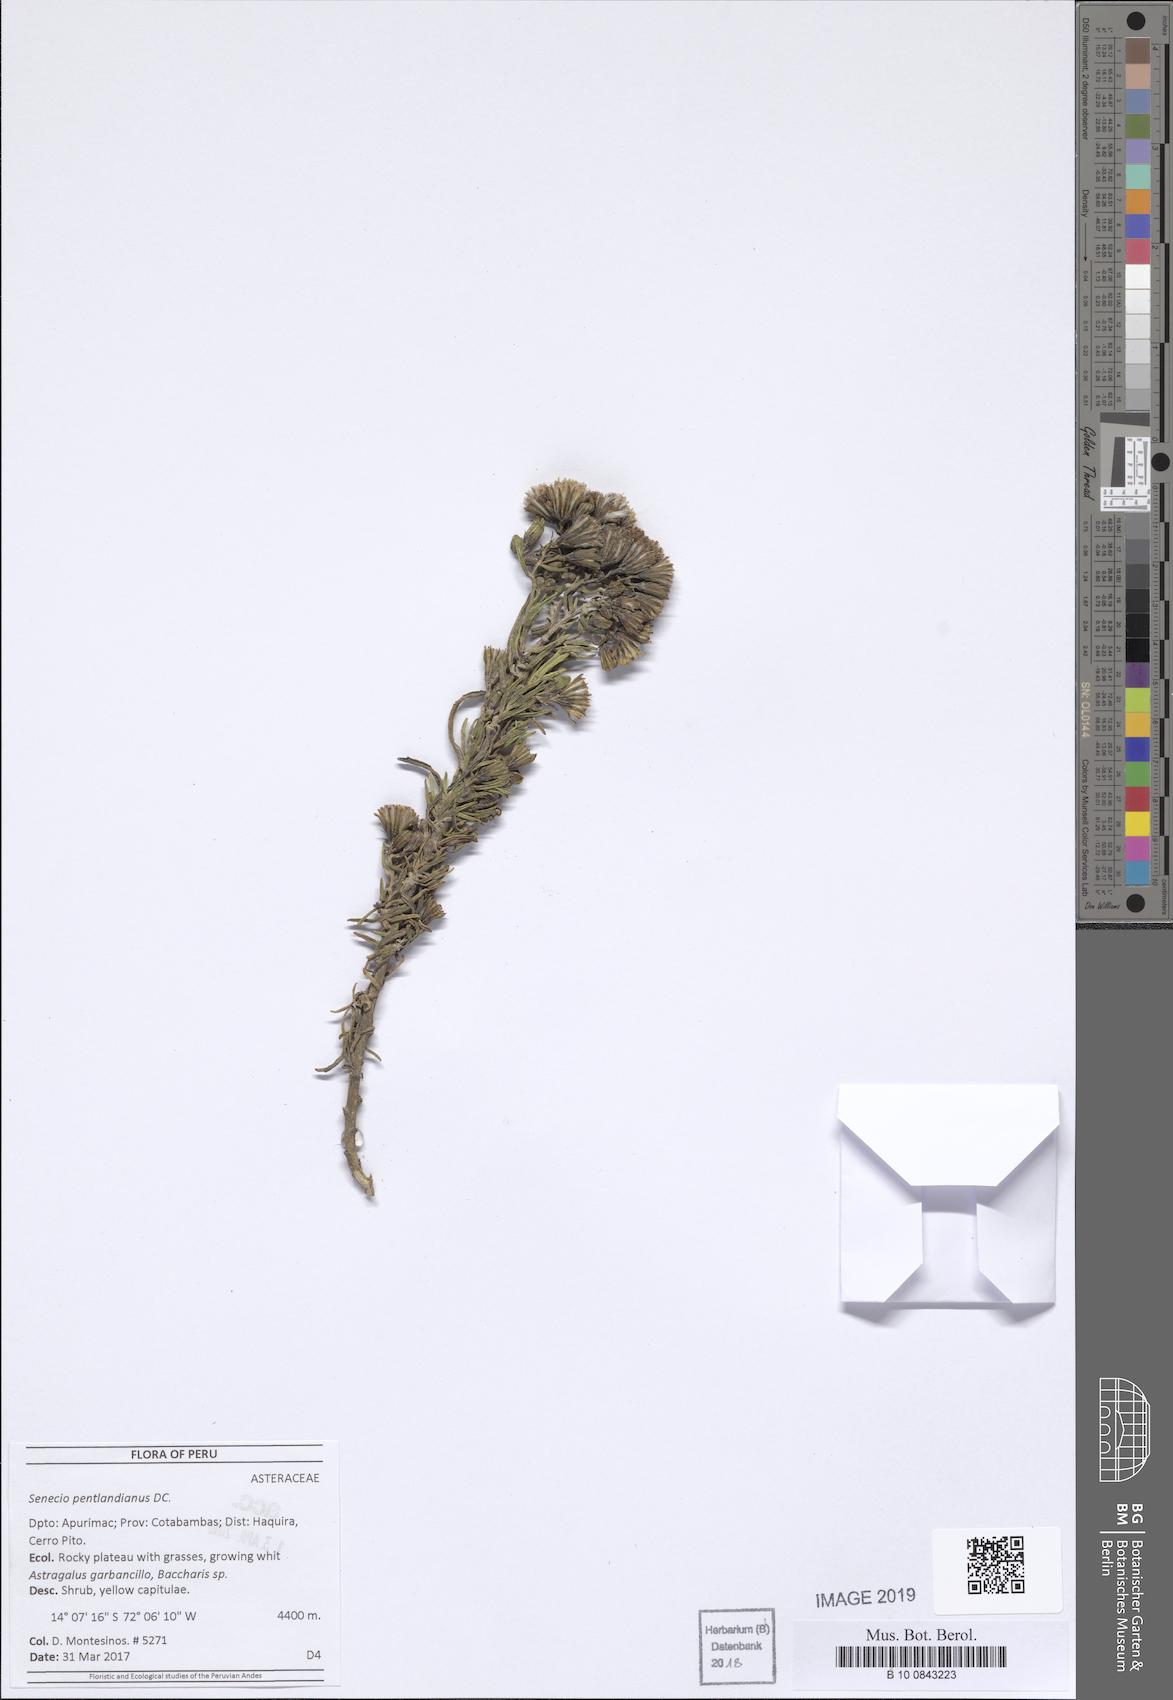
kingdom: Plantae
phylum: Tracheophyta
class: Magnoliopsida
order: Asterales
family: Asteraceae
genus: Senecio
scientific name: Senecio pentlandianus
